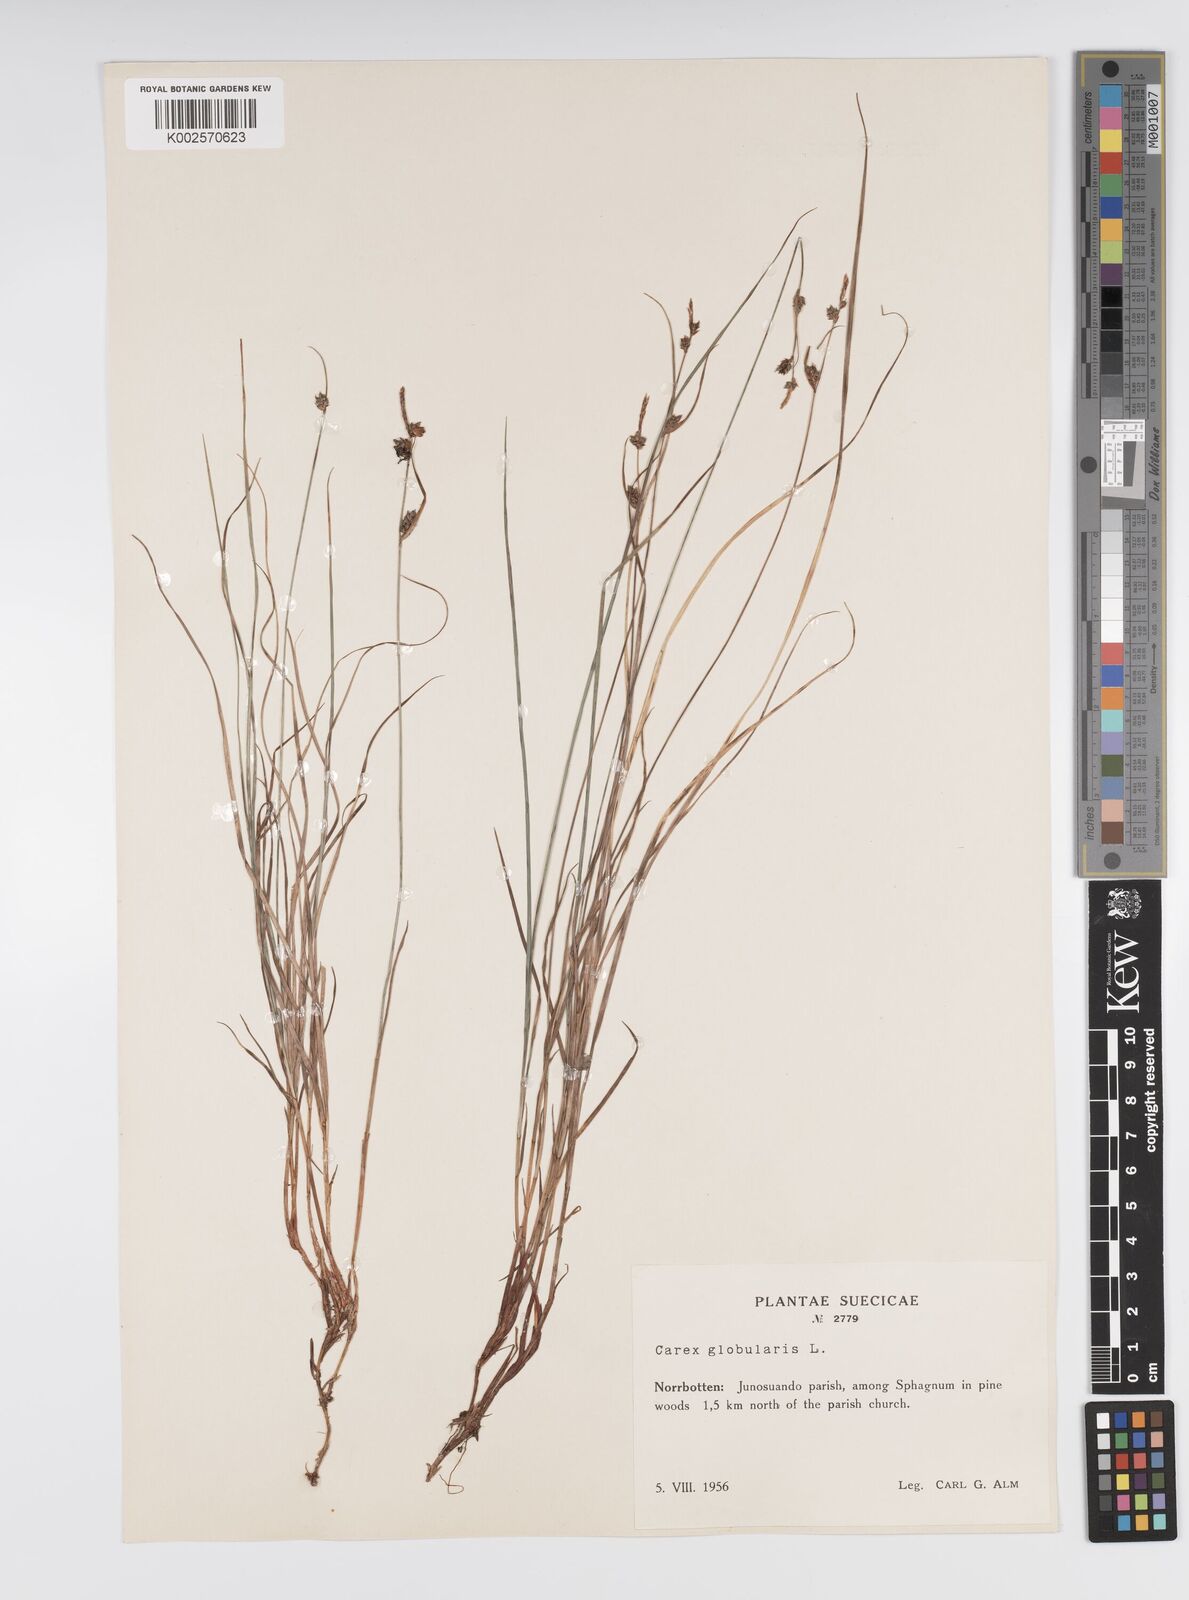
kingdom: Plantae
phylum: Tracheophyta
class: Liliopsida
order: Poales
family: Cyperaceae
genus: Carex
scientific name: Carex globularis
